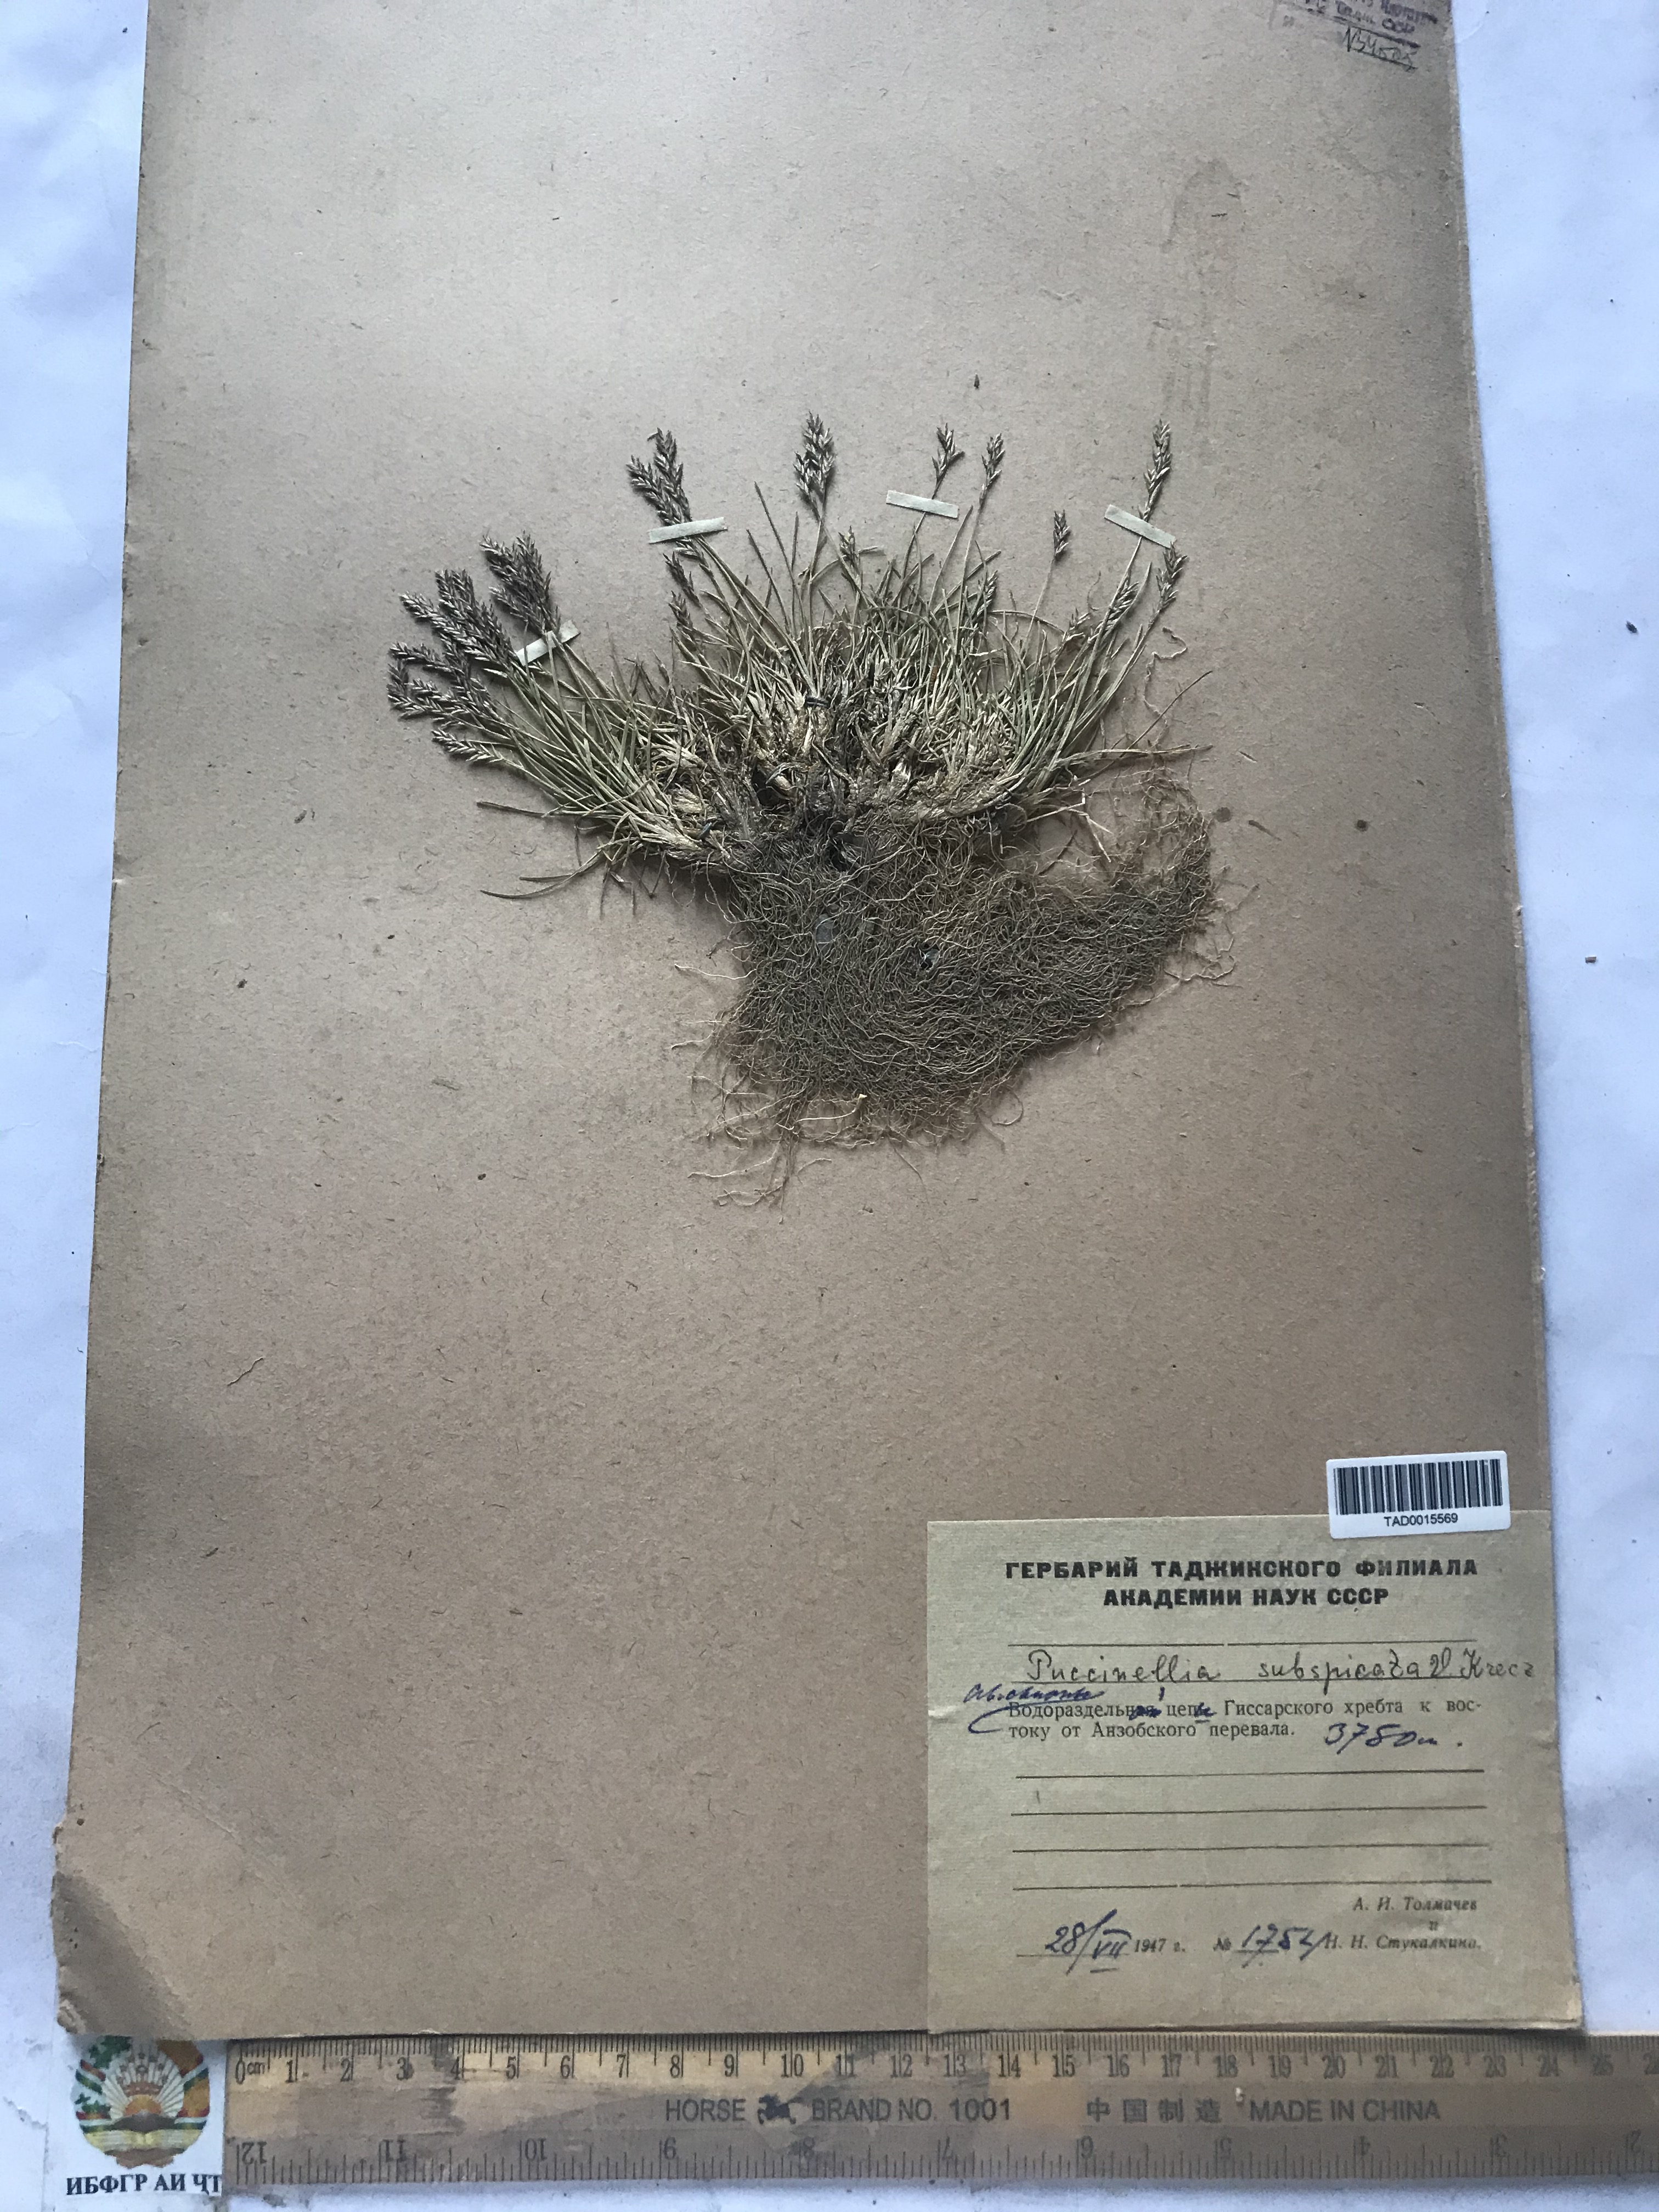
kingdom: Plantae
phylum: Tracheophyta
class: Liliopsida
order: Poales
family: Poaceae
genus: Puccinellia
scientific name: Puccinellia subspicata
